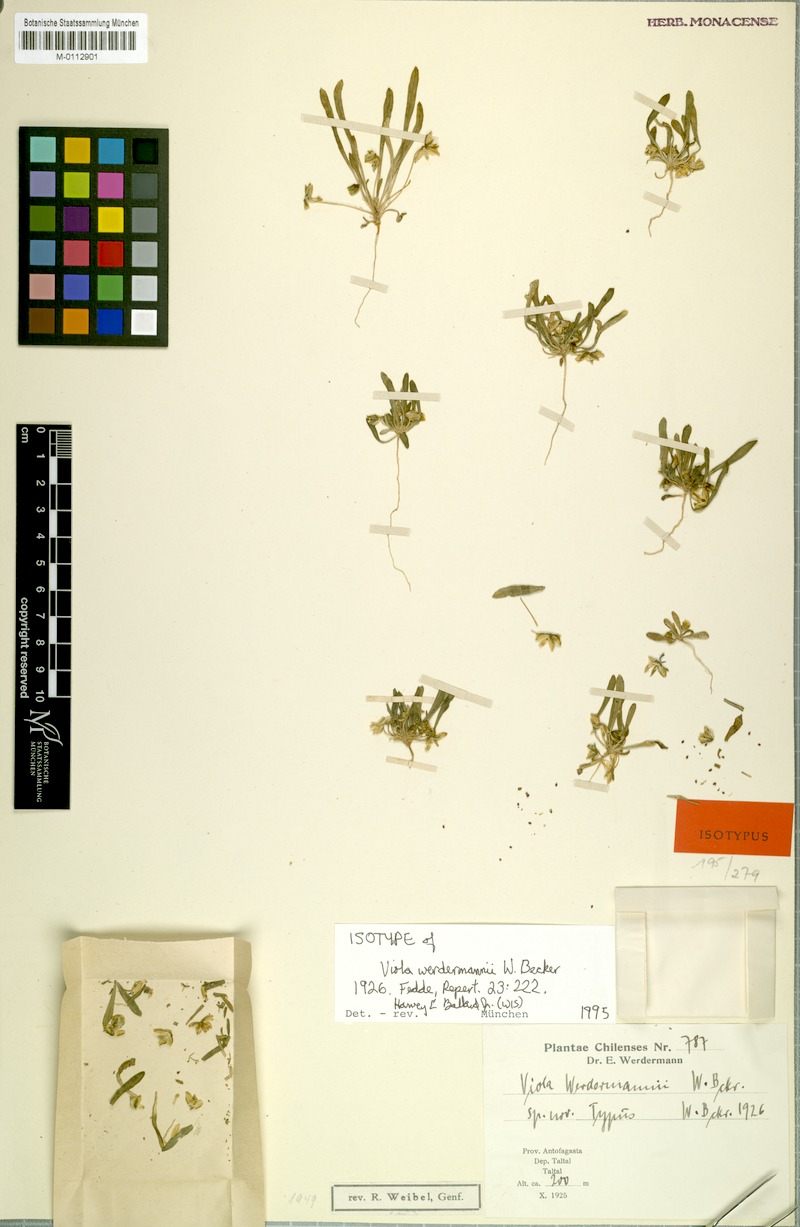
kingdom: Plantae
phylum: Tracheophyta
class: Magnoliopsida
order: Malpighiales
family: Violaceae
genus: Viola
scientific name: Viola polypoda
